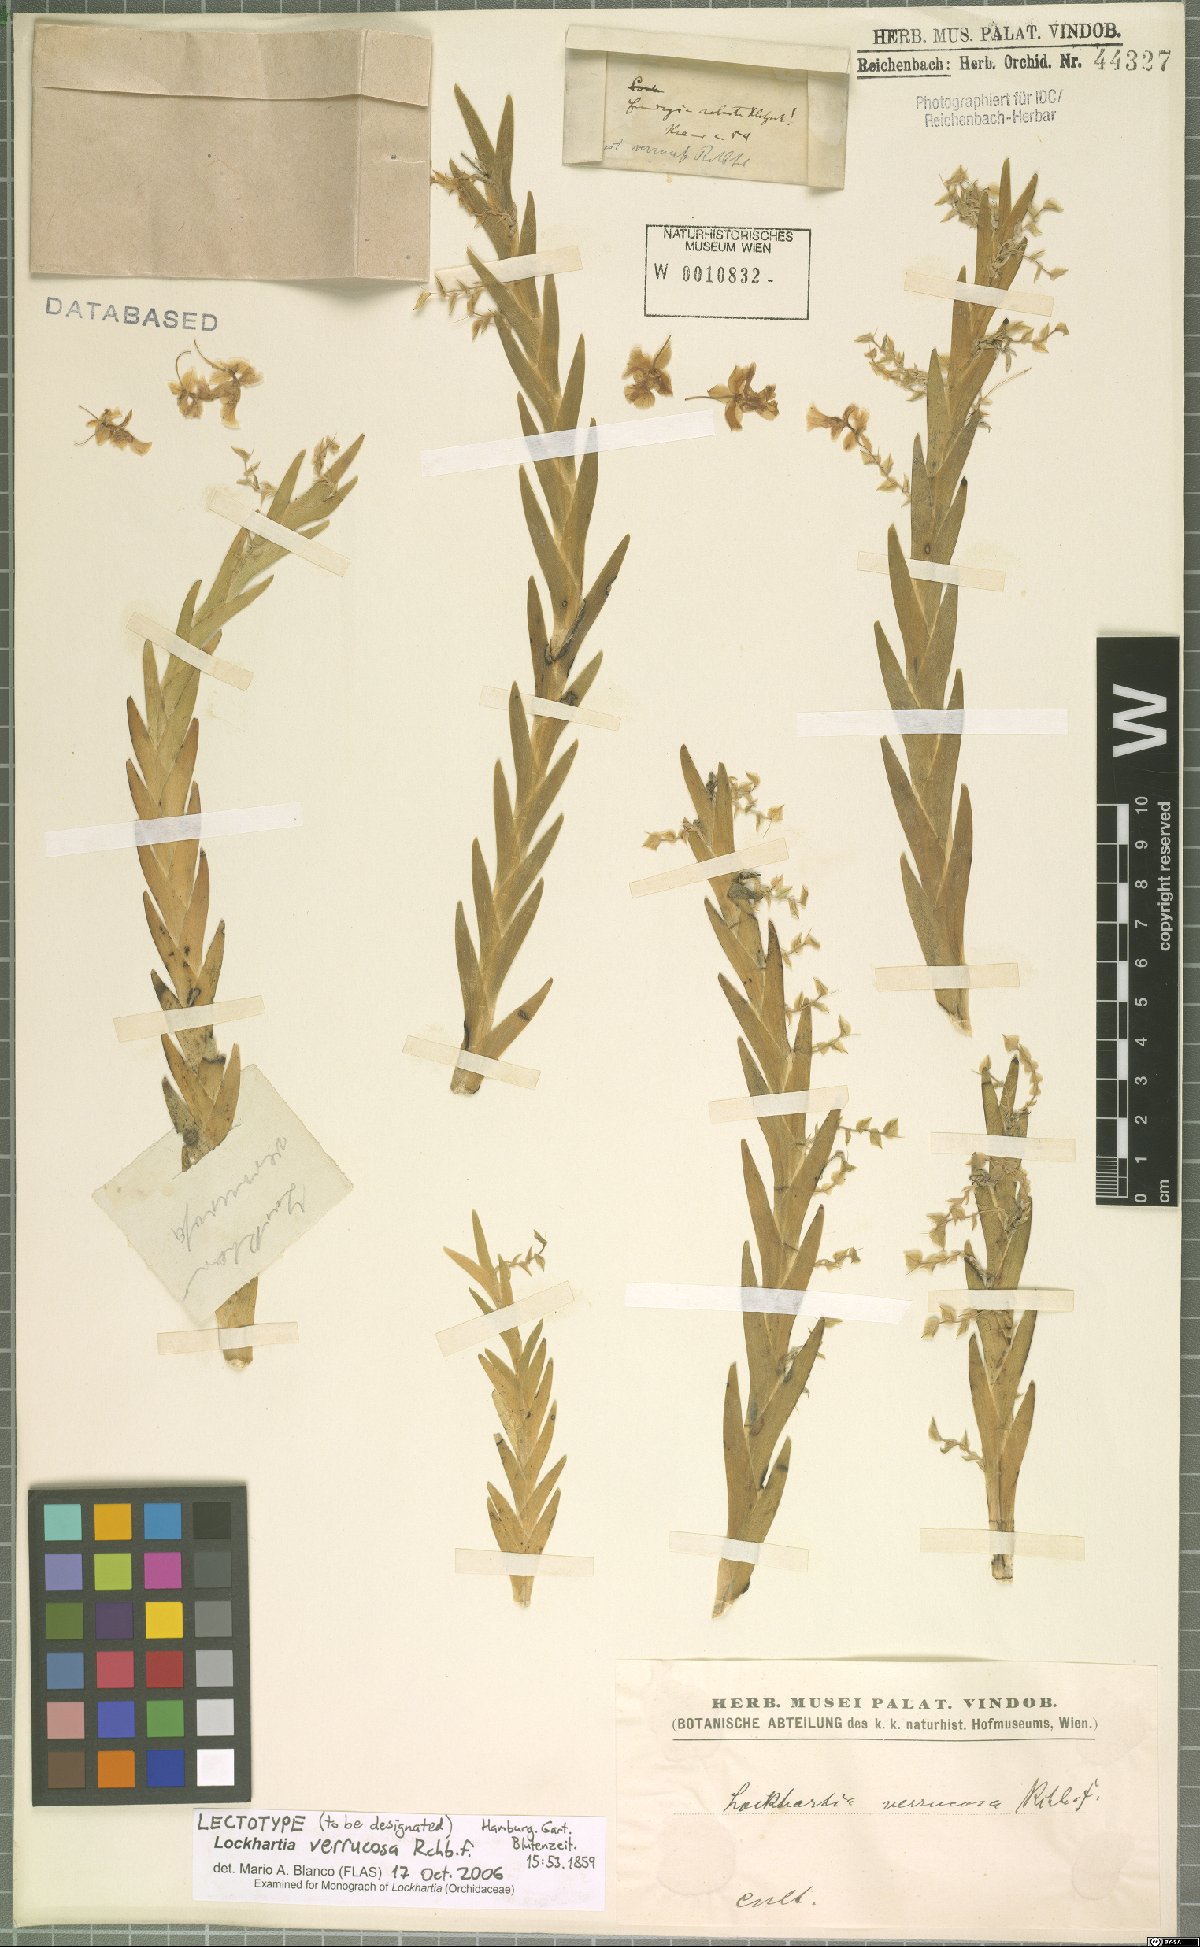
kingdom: Plantae
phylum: Tracheophyta
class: Liliopsida
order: Asparagales
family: Orchidaceae
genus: Lockhartia
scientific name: Lockhartia oerstedii
